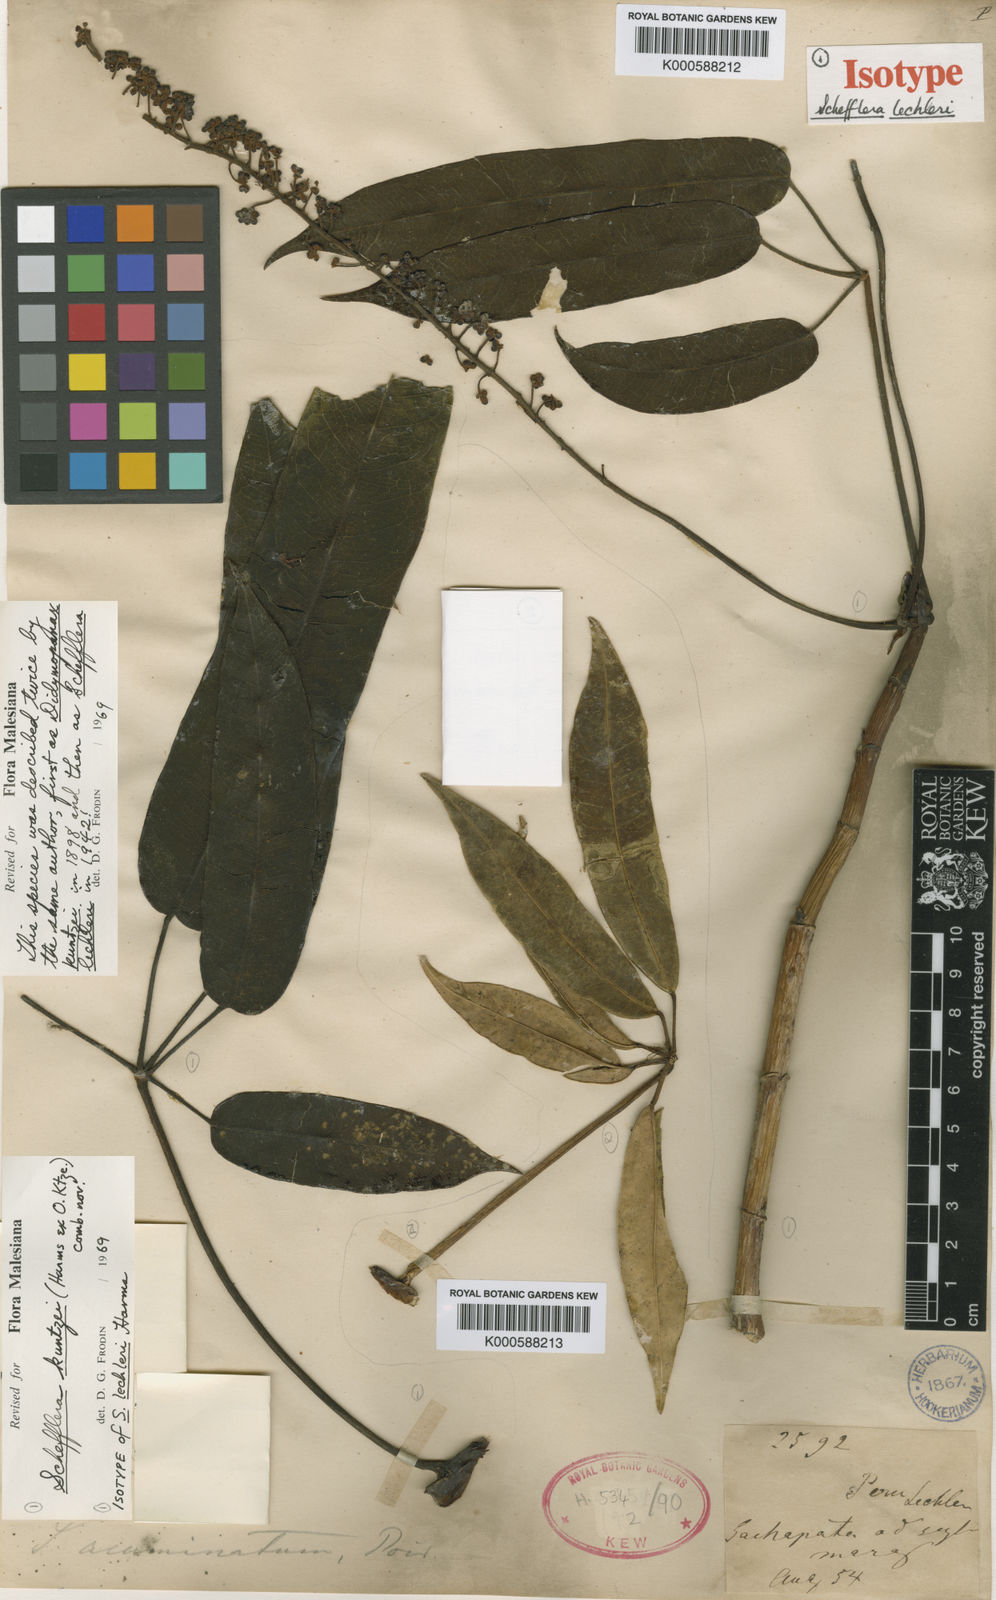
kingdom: Plantae
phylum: Tracheophyta
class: Magnoliopsida
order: Apiales
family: Araliaceae
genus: Sciodaphyllum
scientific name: Sciodaphyllum kuntzei
